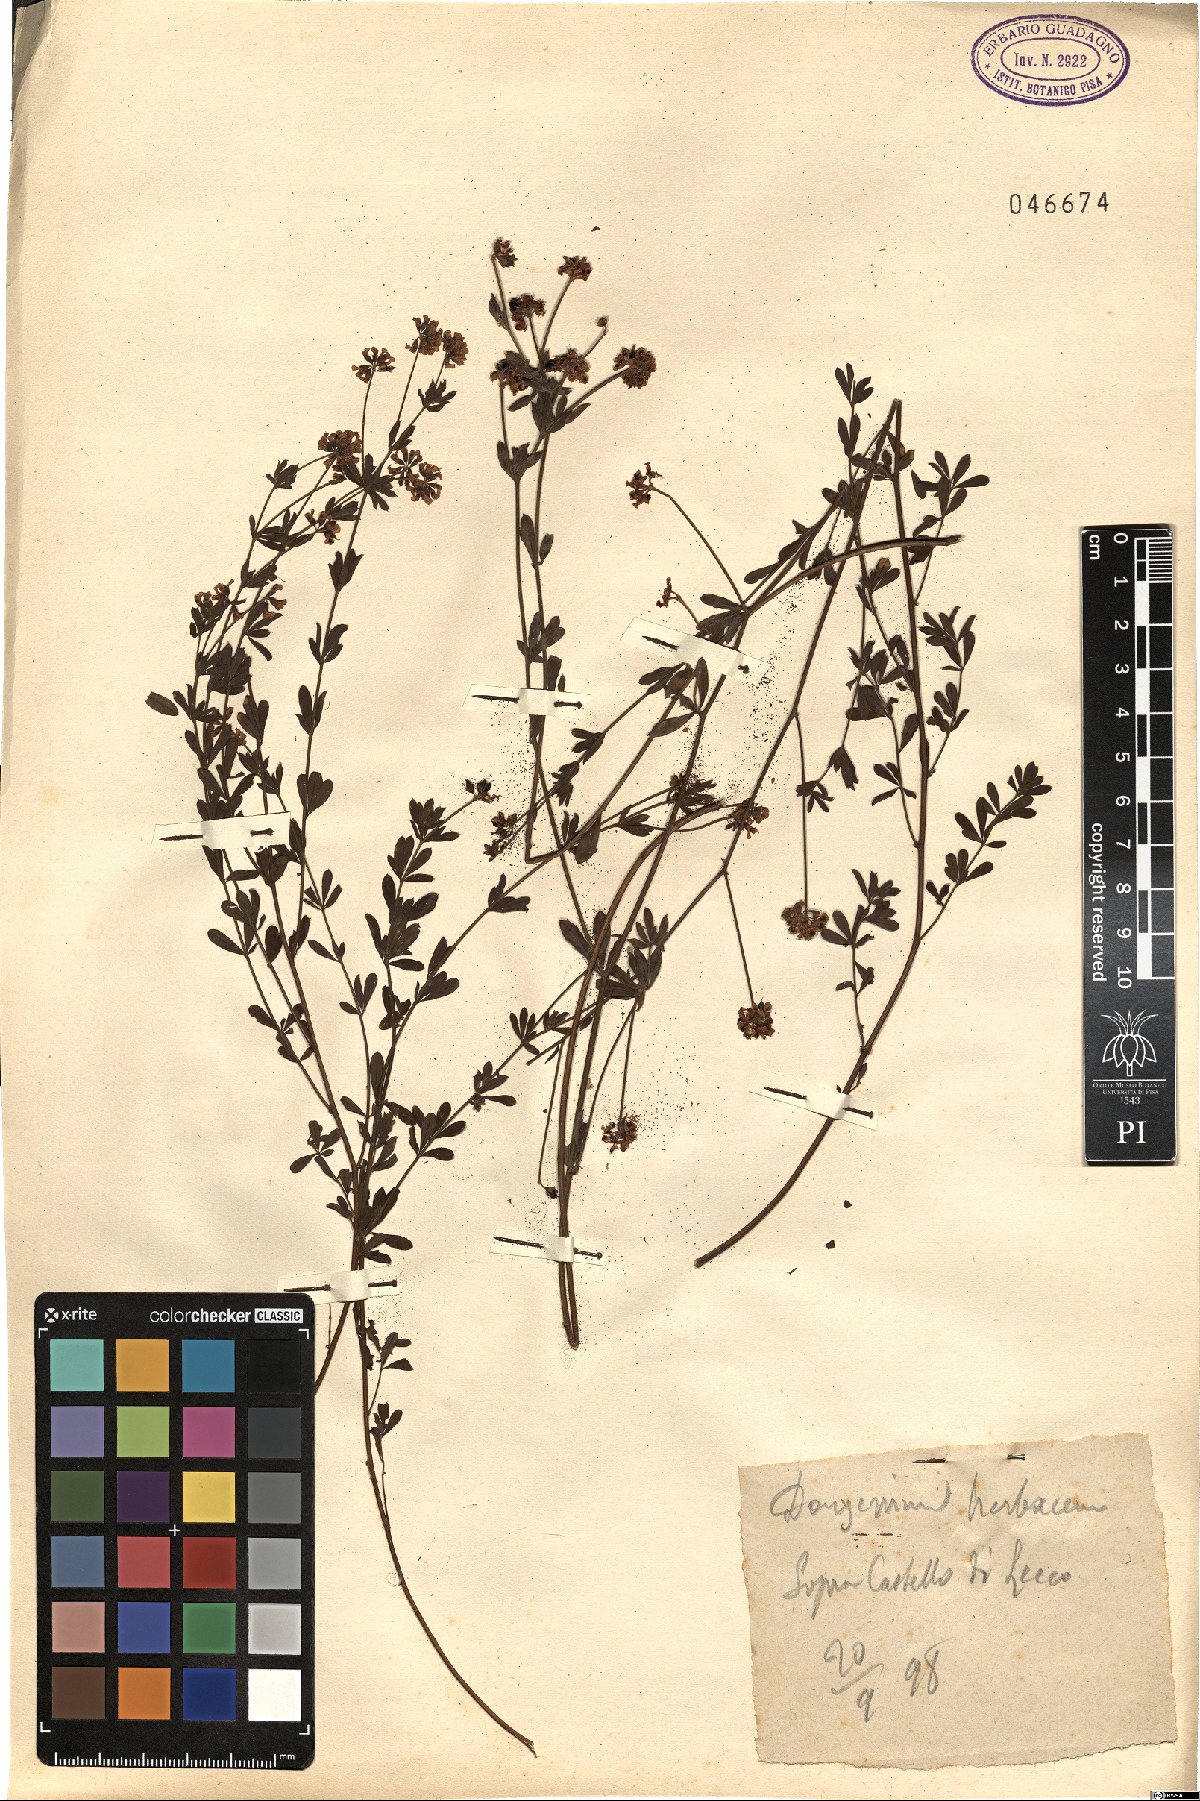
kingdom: Plantae
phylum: Tracheophyta
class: Magnoliopsida
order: Fabales
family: Fabaceae
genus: Lotus
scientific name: Lotus herbaceus
